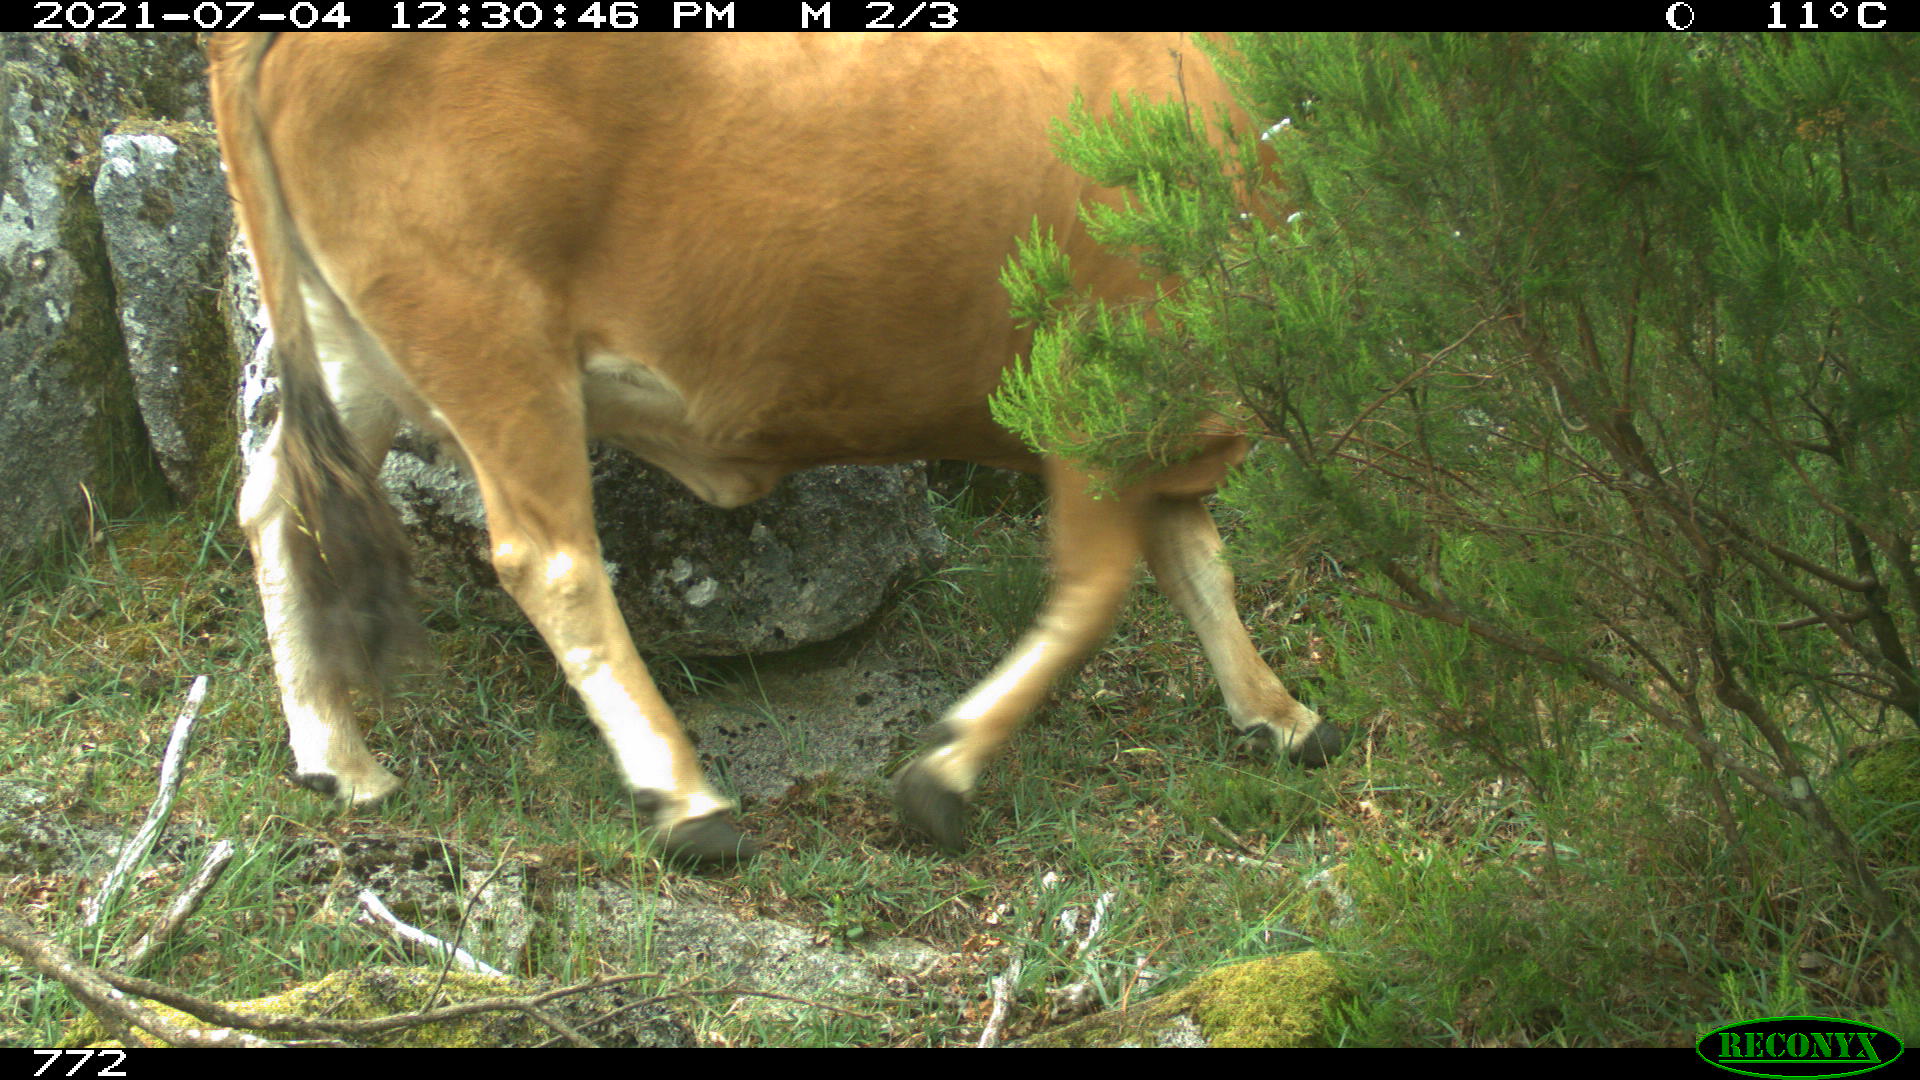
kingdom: Animalia
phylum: Chordata
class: Mammalia
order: Artiodactyla
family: Bovidae
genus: Bos
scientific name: Bos taurus
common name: Domesticated cattle
